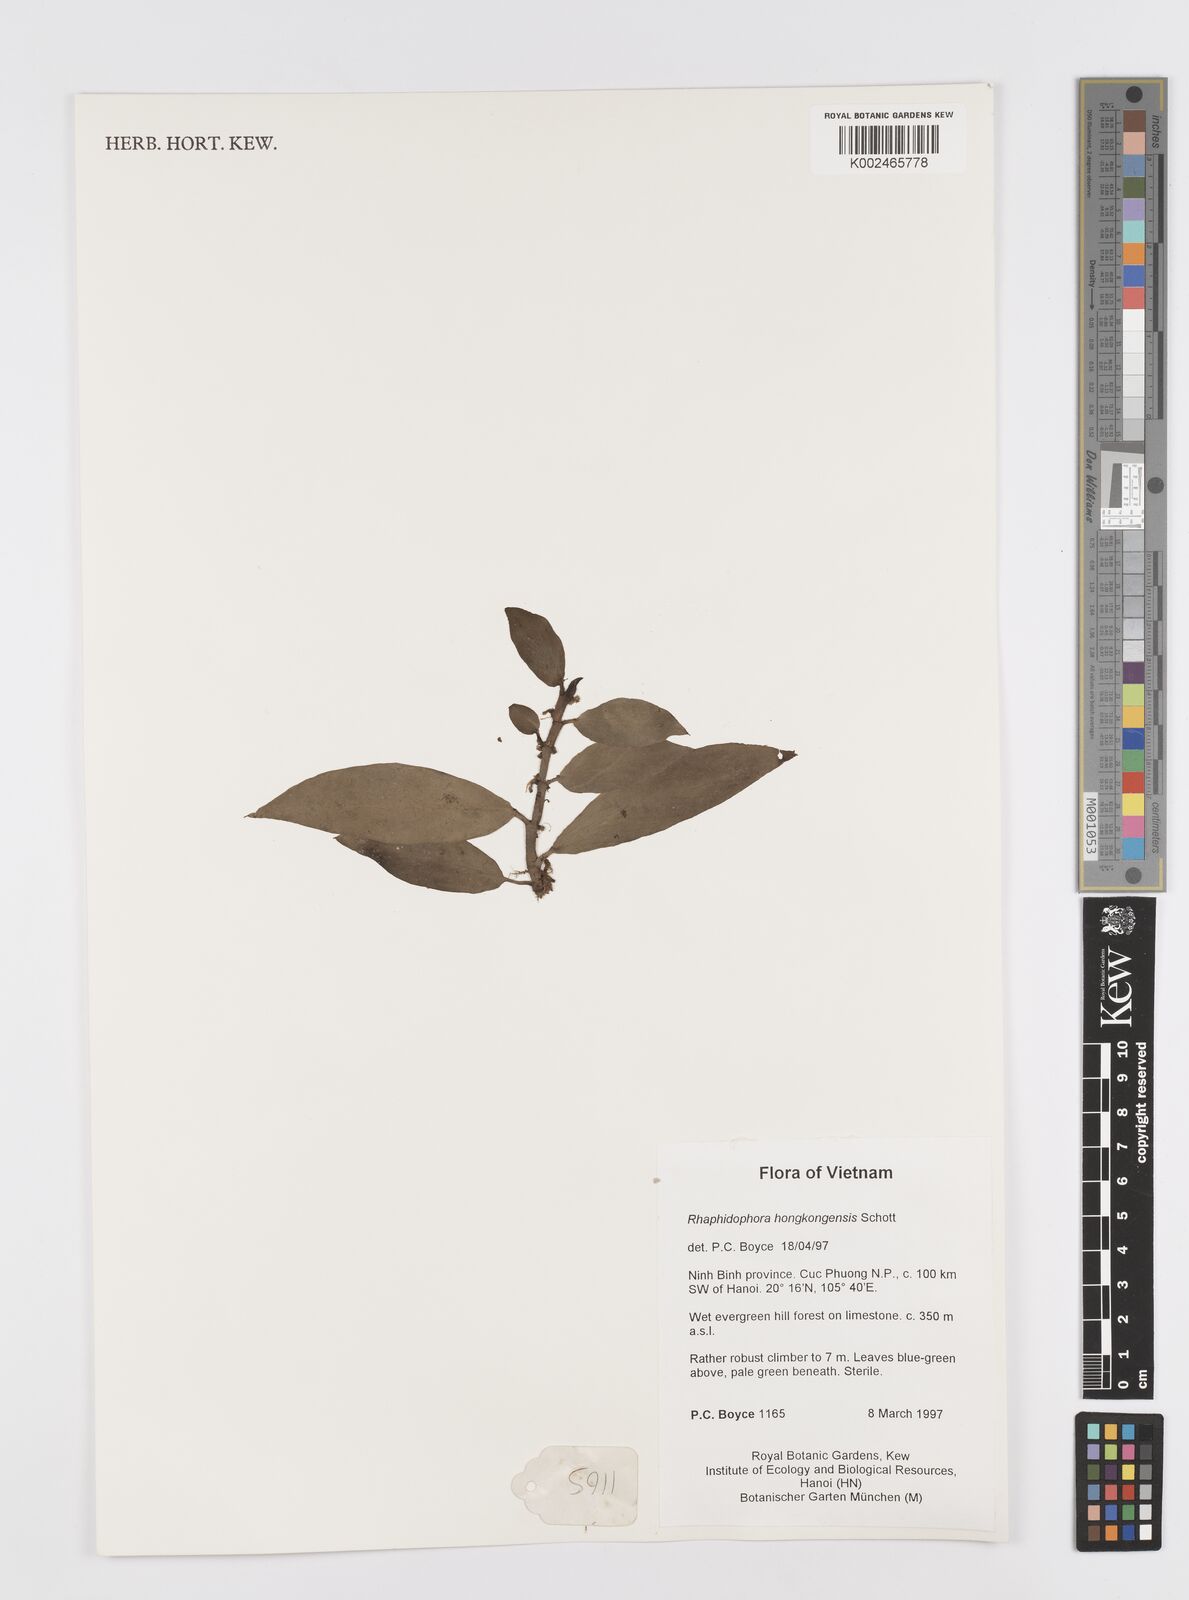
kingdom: Plantae
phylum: Tracheophyta
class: Liliopsida
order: Alismatales
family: Araceae
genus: Rhaphidophora
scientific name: Rhaphidophora
